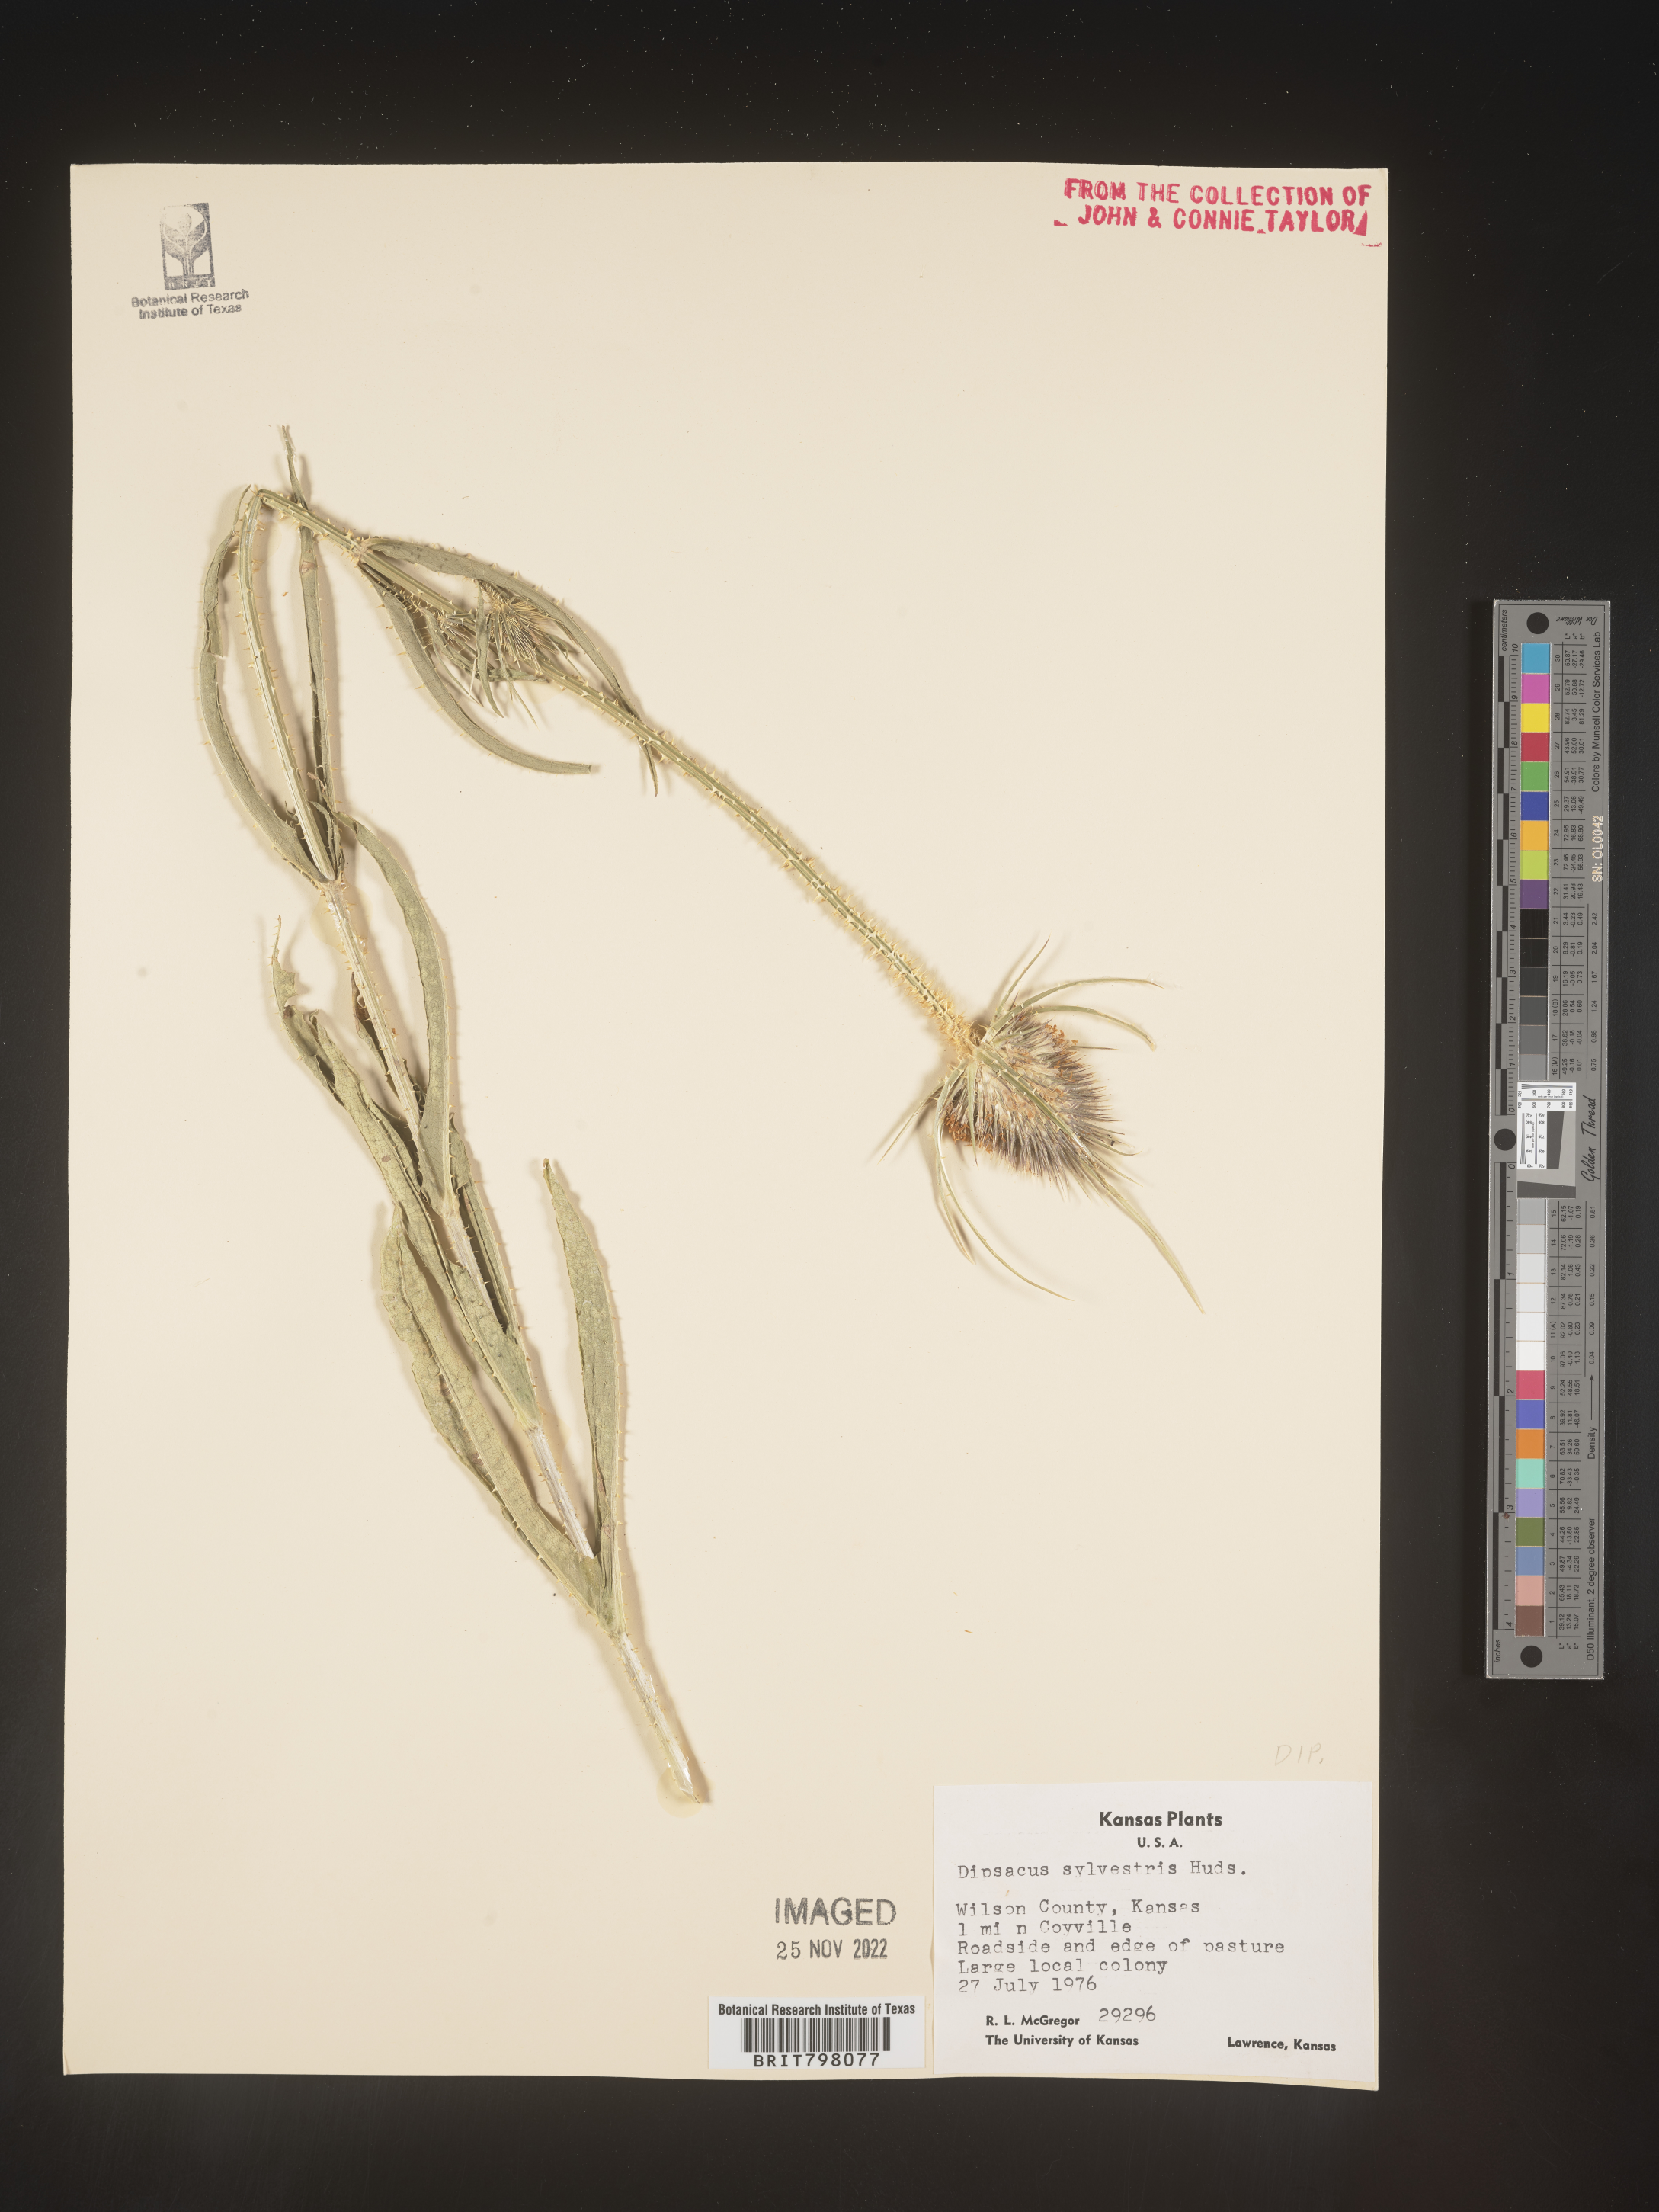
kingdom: Plantae
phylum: Tracheophyta
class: Magnoliopsida
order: Dipsacales
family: Caprifoliaceae
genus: Dipsacus
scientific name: Dipsacus fullonum
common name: Teasel
